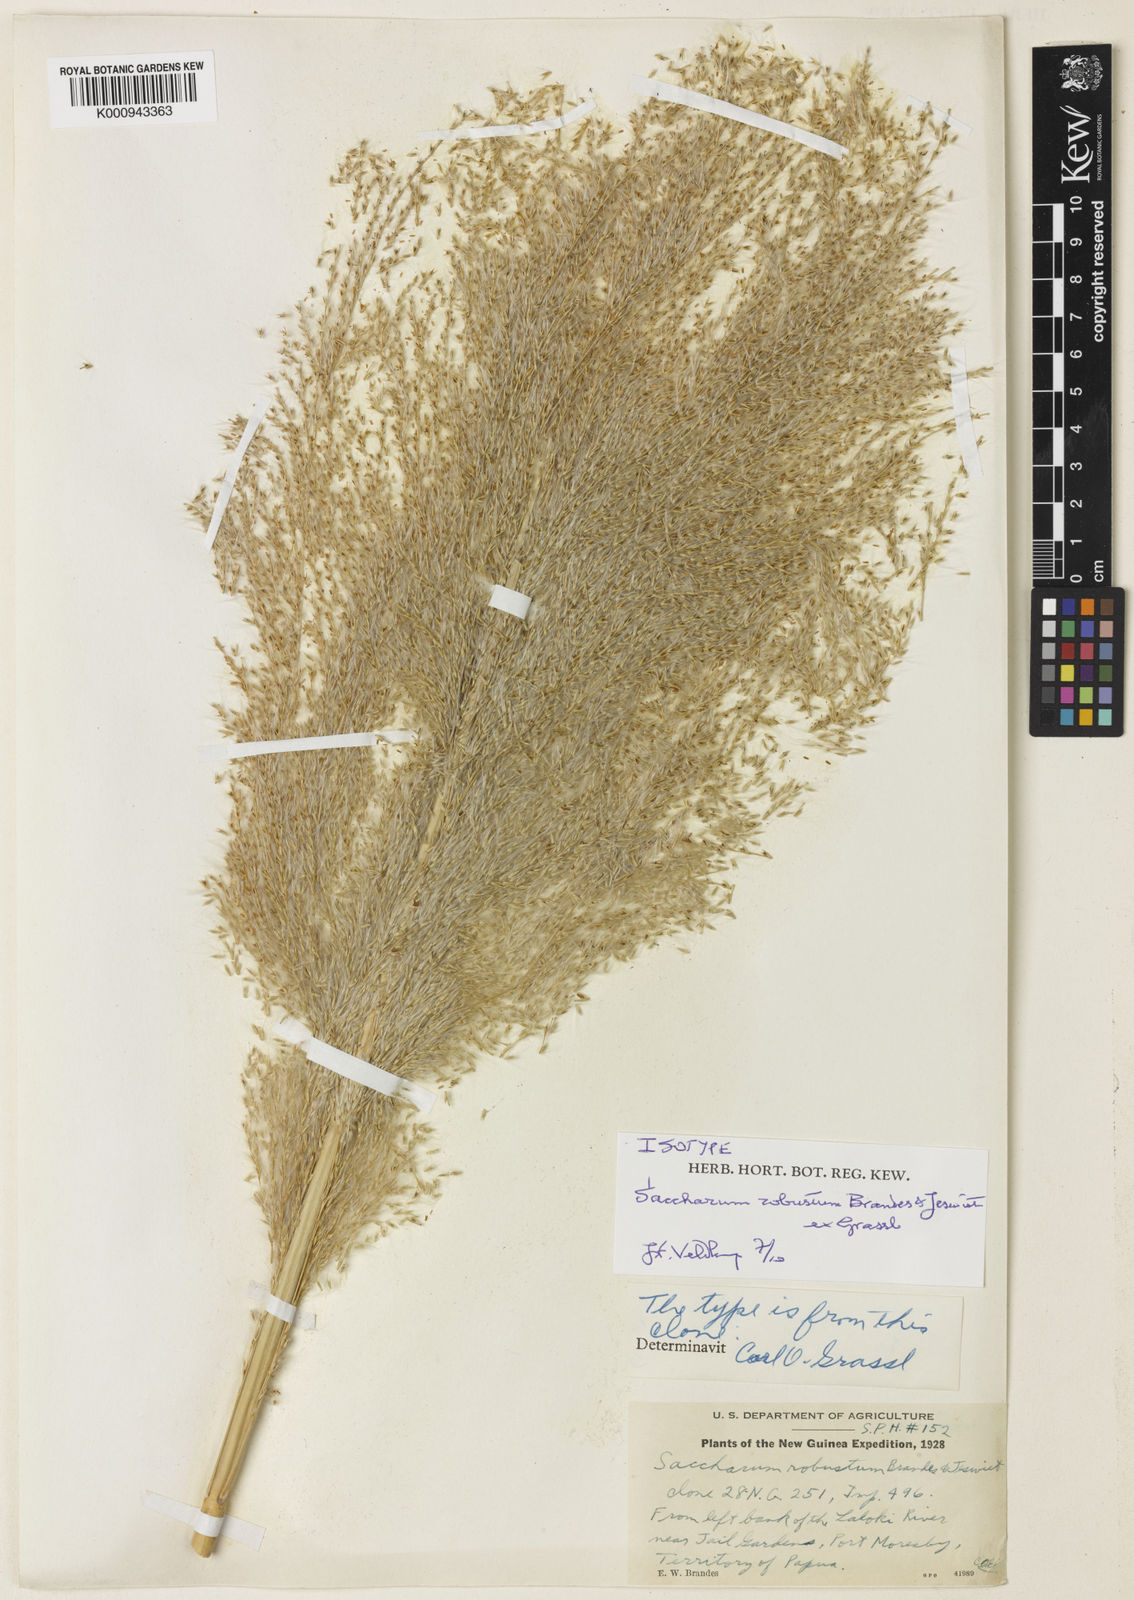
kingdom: Plantae
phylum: Tracheophyta
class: Liliopsida
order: Poales
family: Poaceae
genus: Saccharum
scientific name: Saccharum robustum
